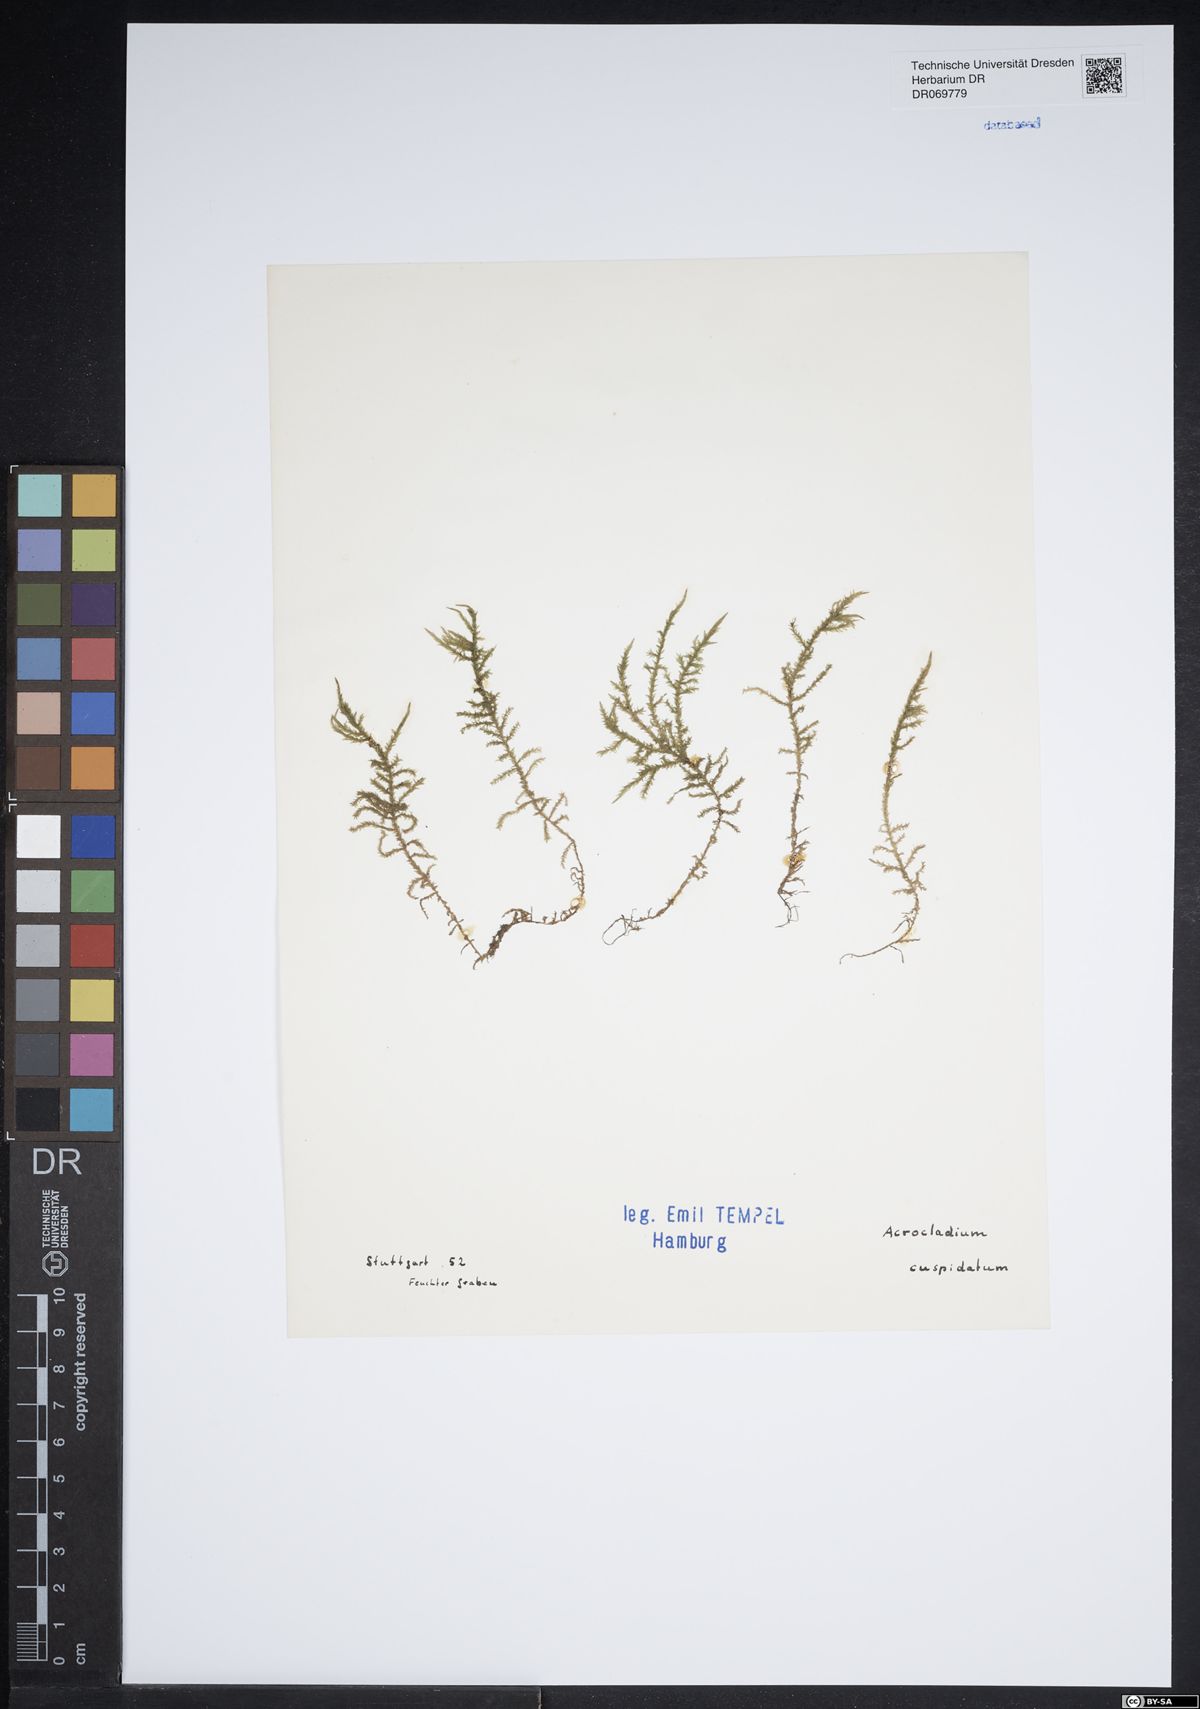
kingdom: Plantae
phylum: Bryophyta
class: Bryopsida
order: Hypnales
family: Lembophyllaceae
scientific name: Lembophyllaceae
